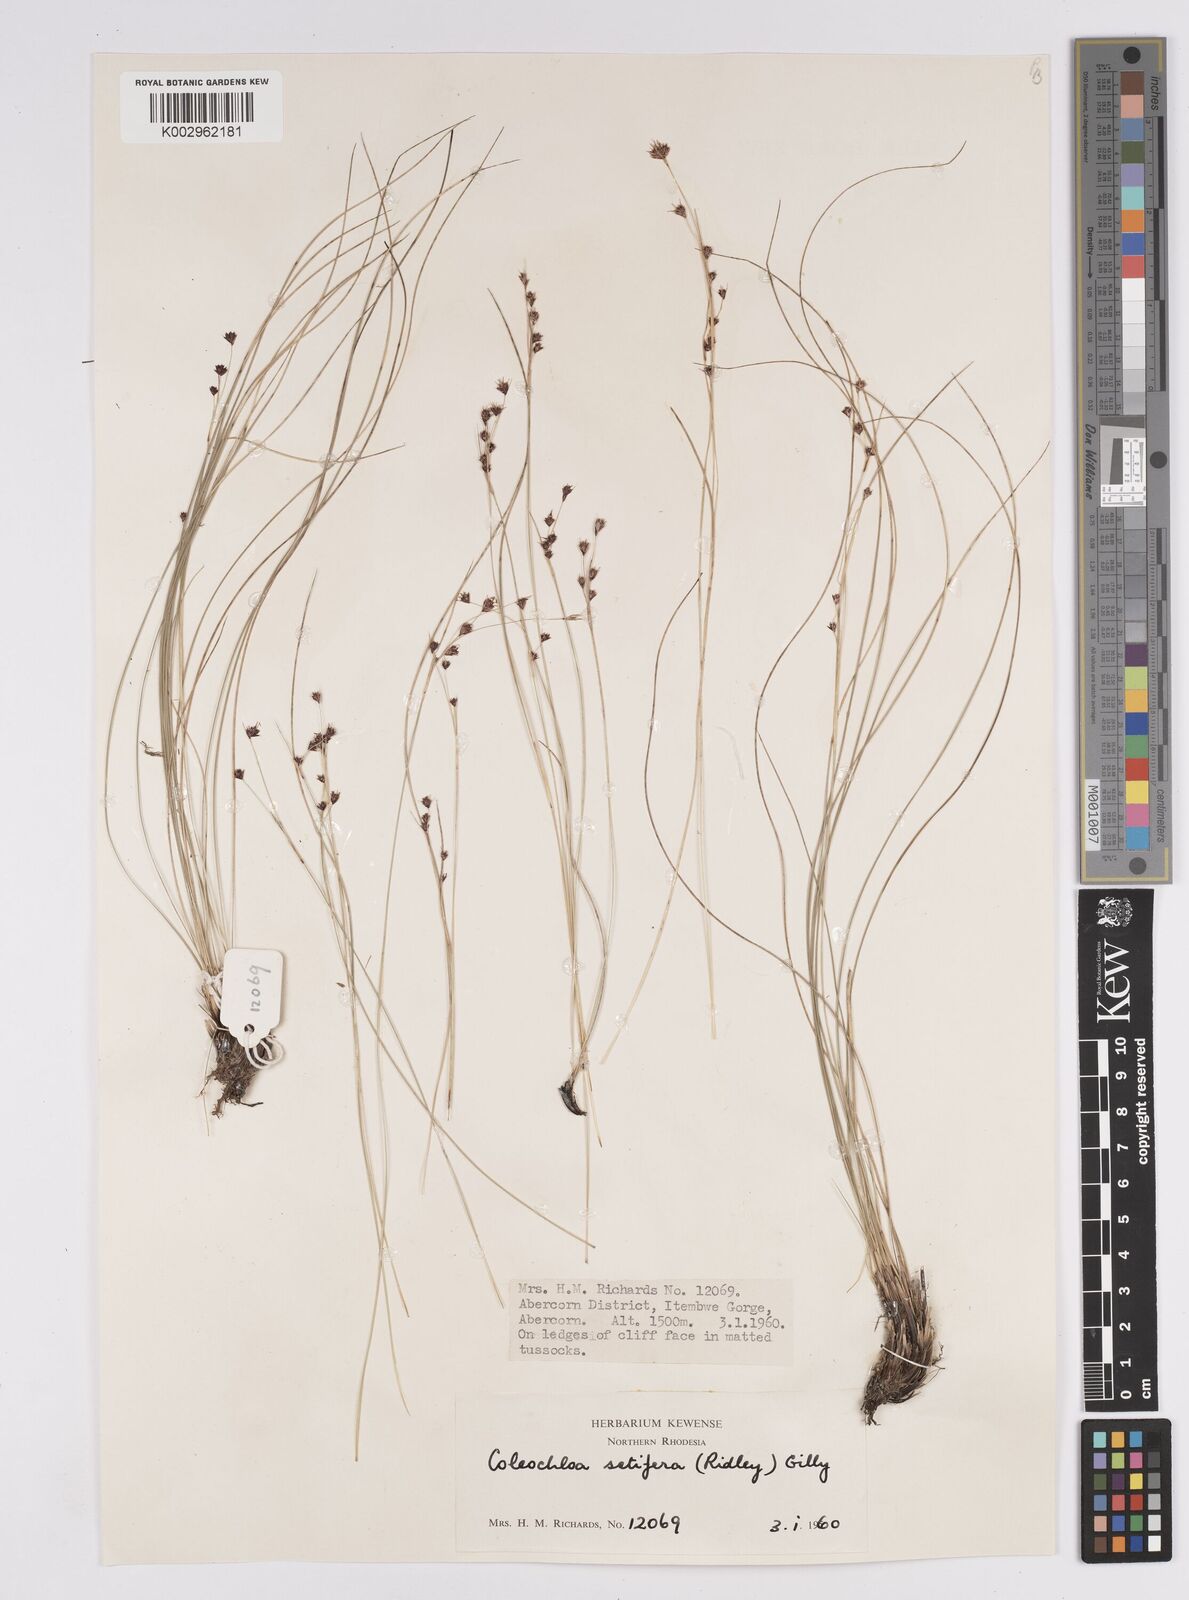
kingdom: Plantae
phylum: Tracheophyta
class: Liliopsida
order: Poales
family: Cyperaceae
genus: Coleochloa
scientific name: Coleochloa setifera
